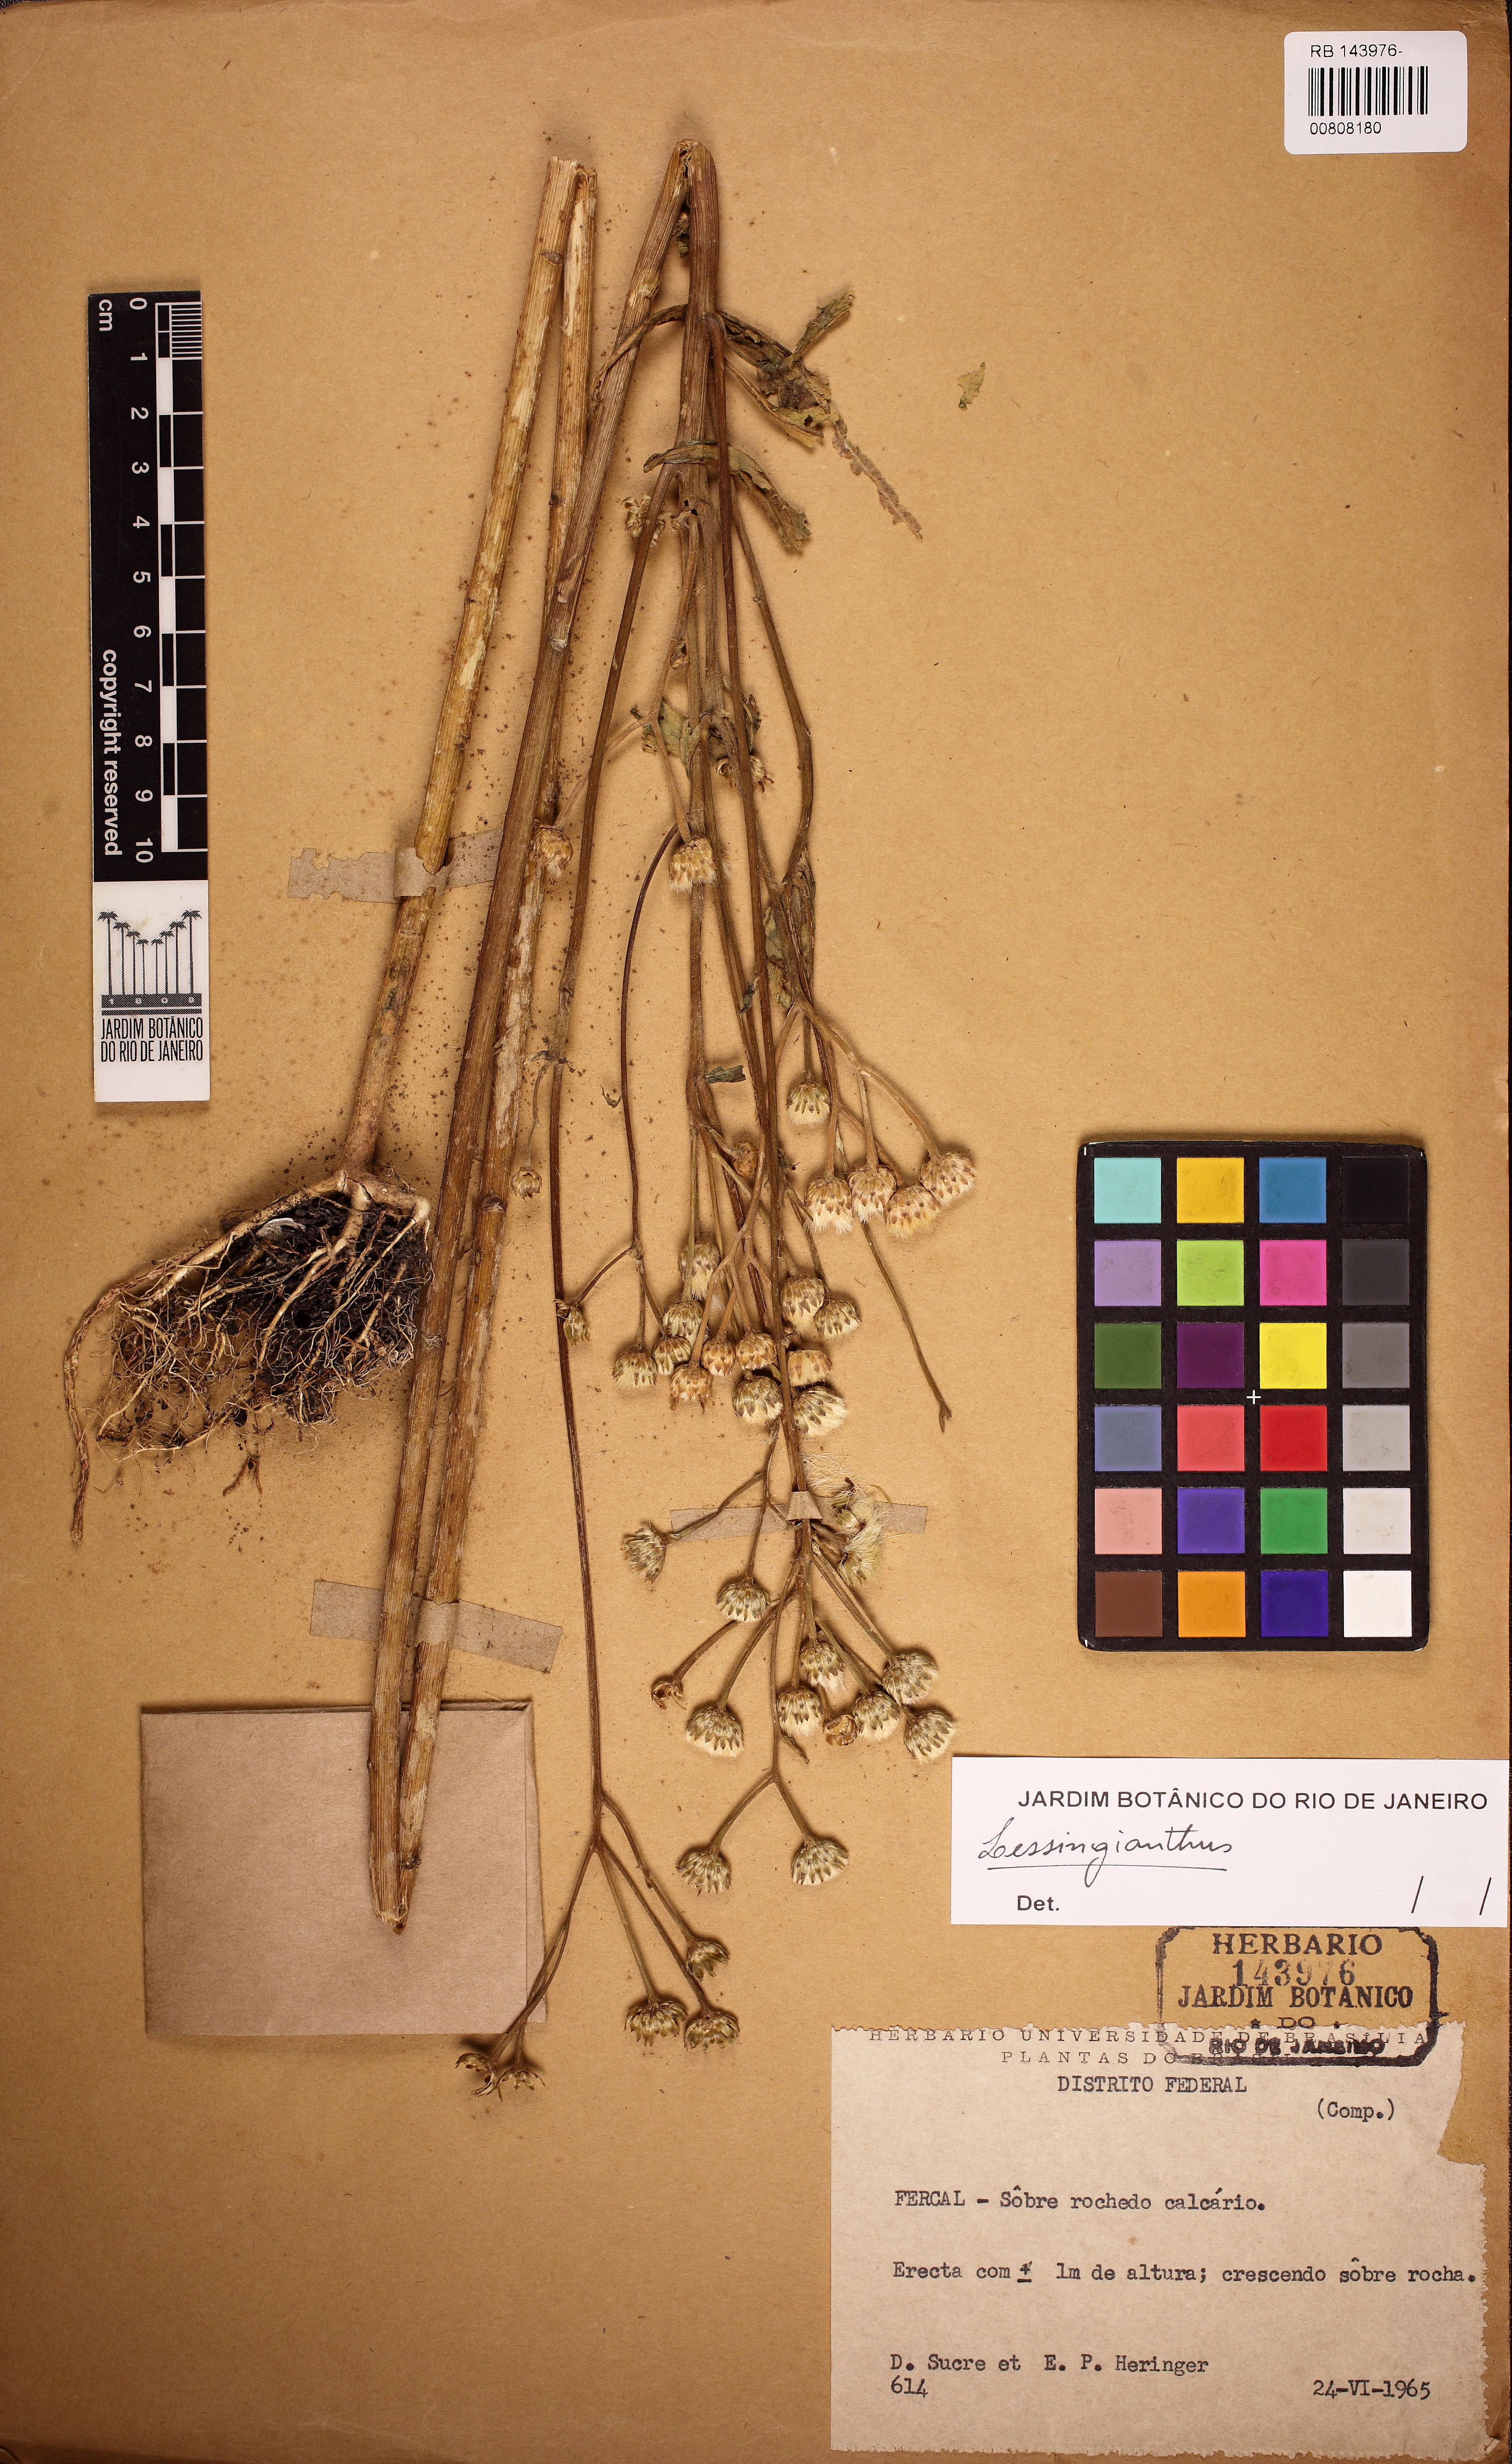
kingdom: Plantae
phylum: Tracheophyta
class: Magnoliopsida
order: Asterales
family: Asteraceae
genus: Lessingianthus
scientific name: Lessingianthus
